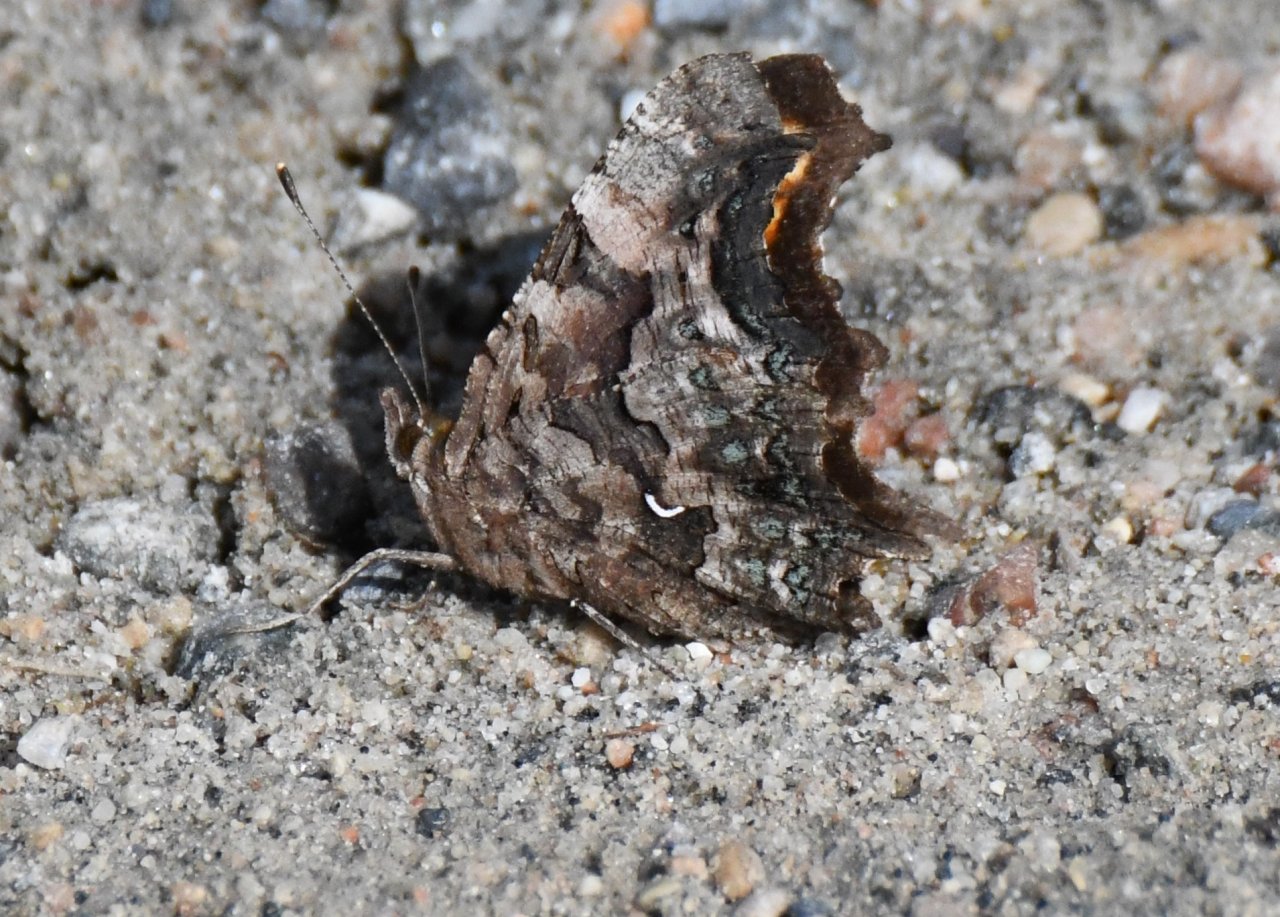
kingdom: Animalia
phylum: Arthropoda
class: Insecta
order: Lepidoptera
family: Nymphalidae
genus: Polygonia
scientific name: Polygonia faunus
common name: Green Comma
